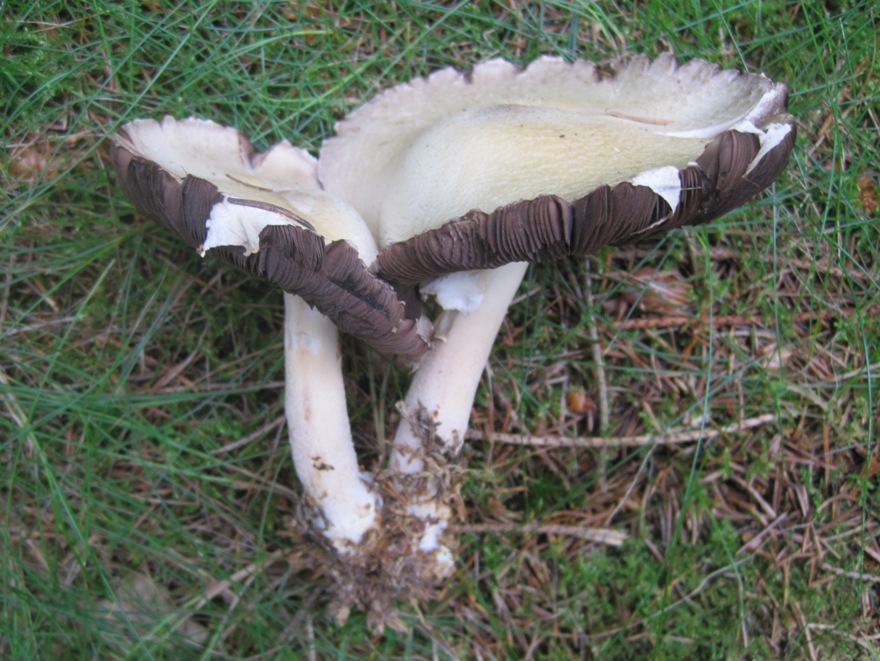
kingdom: Fungi
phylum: Basidiomycota
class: Agaricomycetes
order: Agaricales
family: Agaricaceae
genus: Agaricus
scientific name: Agaricus sylvicola
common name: skiveknoldet champignon
